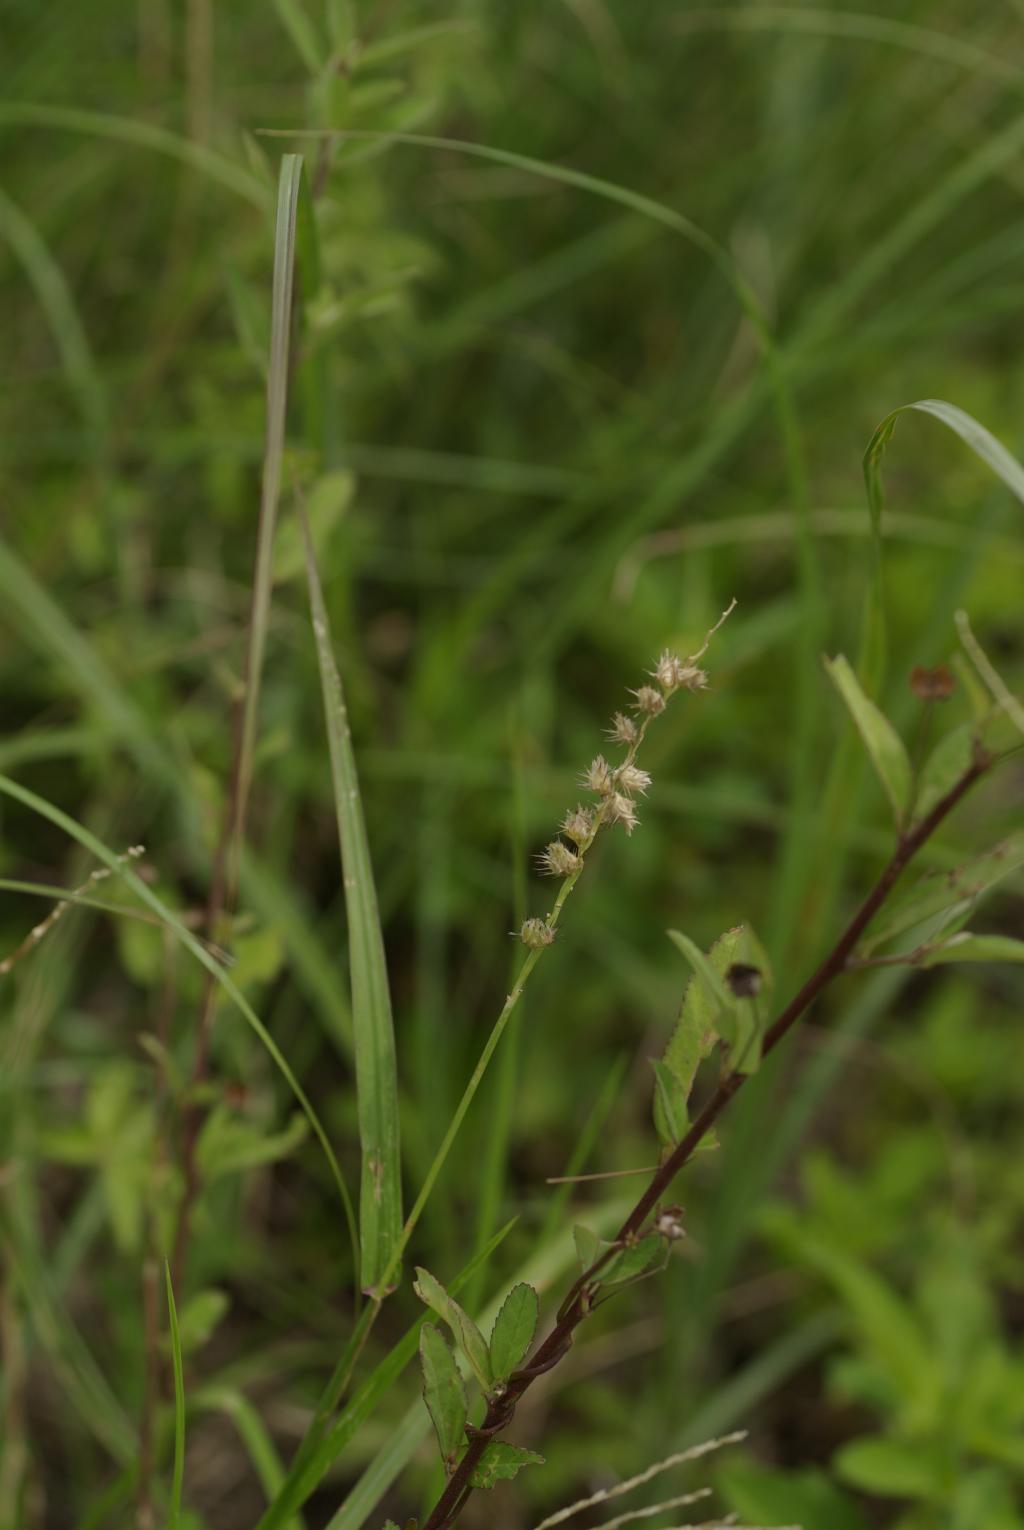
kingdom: Plantae
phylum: Tracheophyta
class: Liliopsida
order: Poales
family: Poaceae
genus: Cenchrus
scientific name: Cenchrus echinatus
